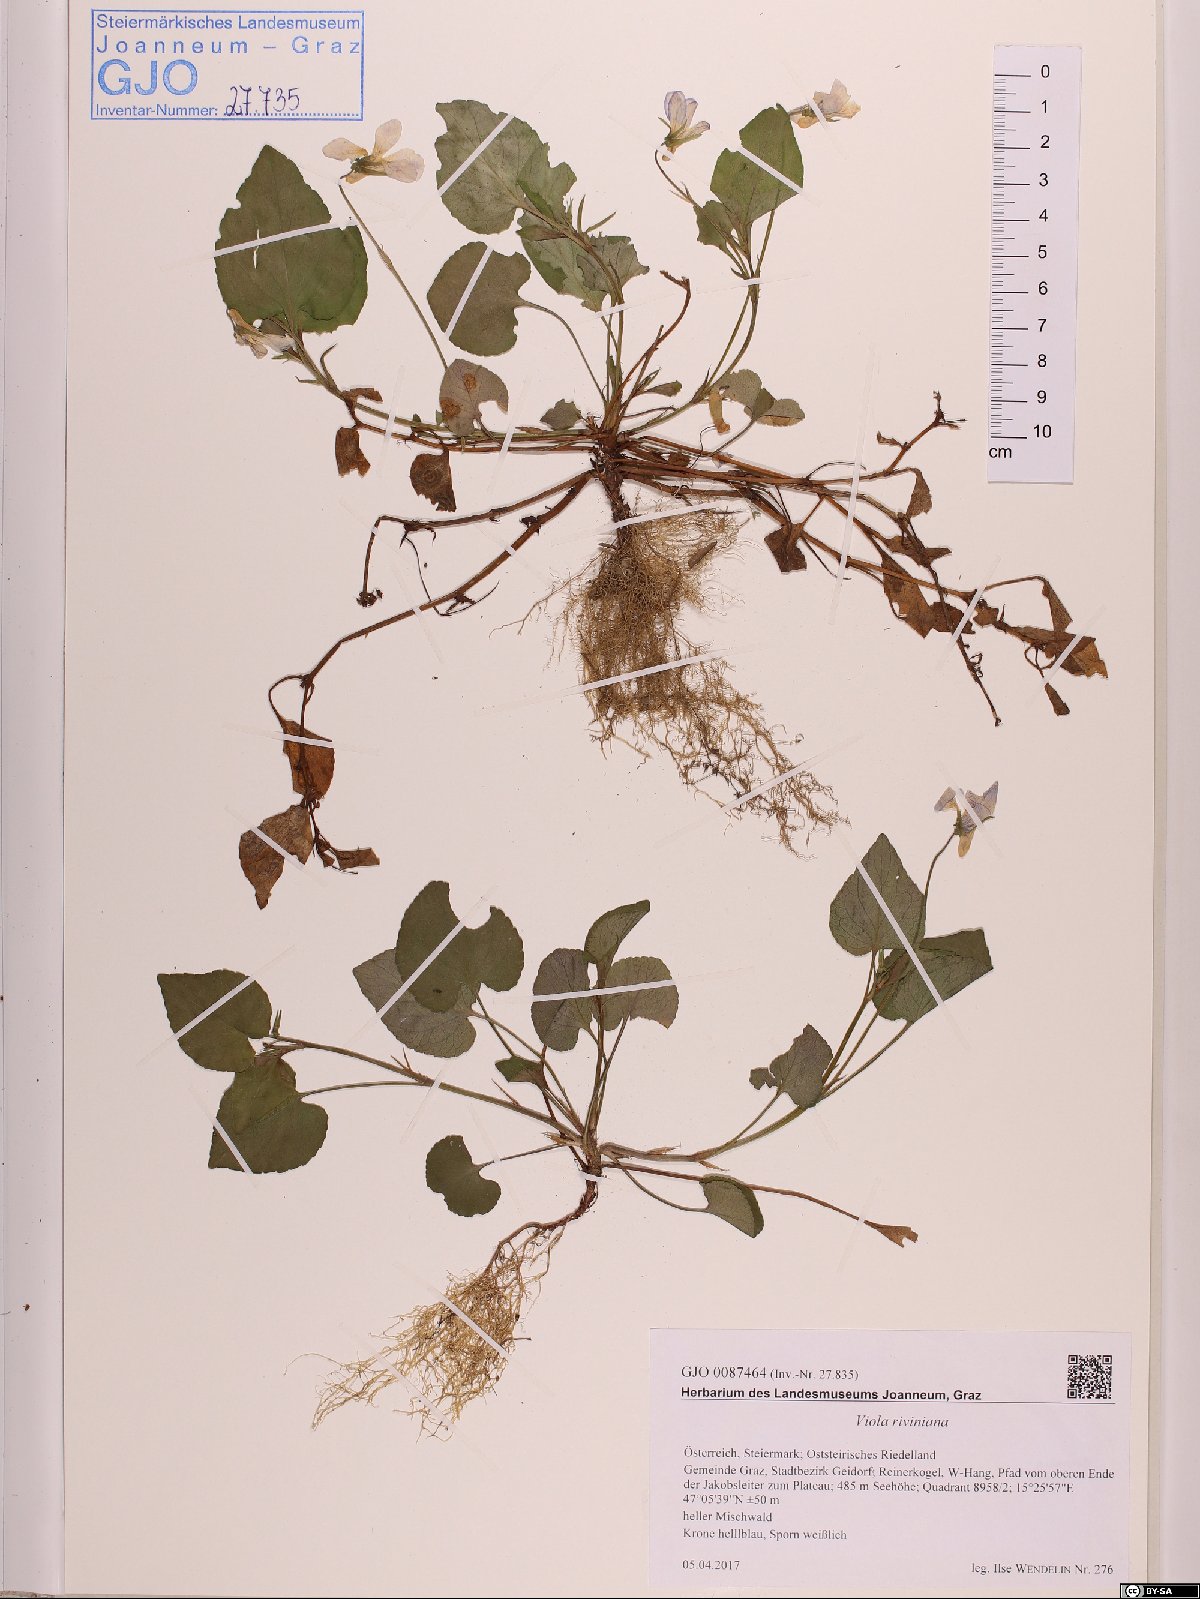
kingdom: Plantae
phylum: Tracheophyta
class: Magnoliopsida
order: Malpighiales
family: Violaceae
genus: Viola
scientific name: Viola riviniana
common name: Common dog-violet
